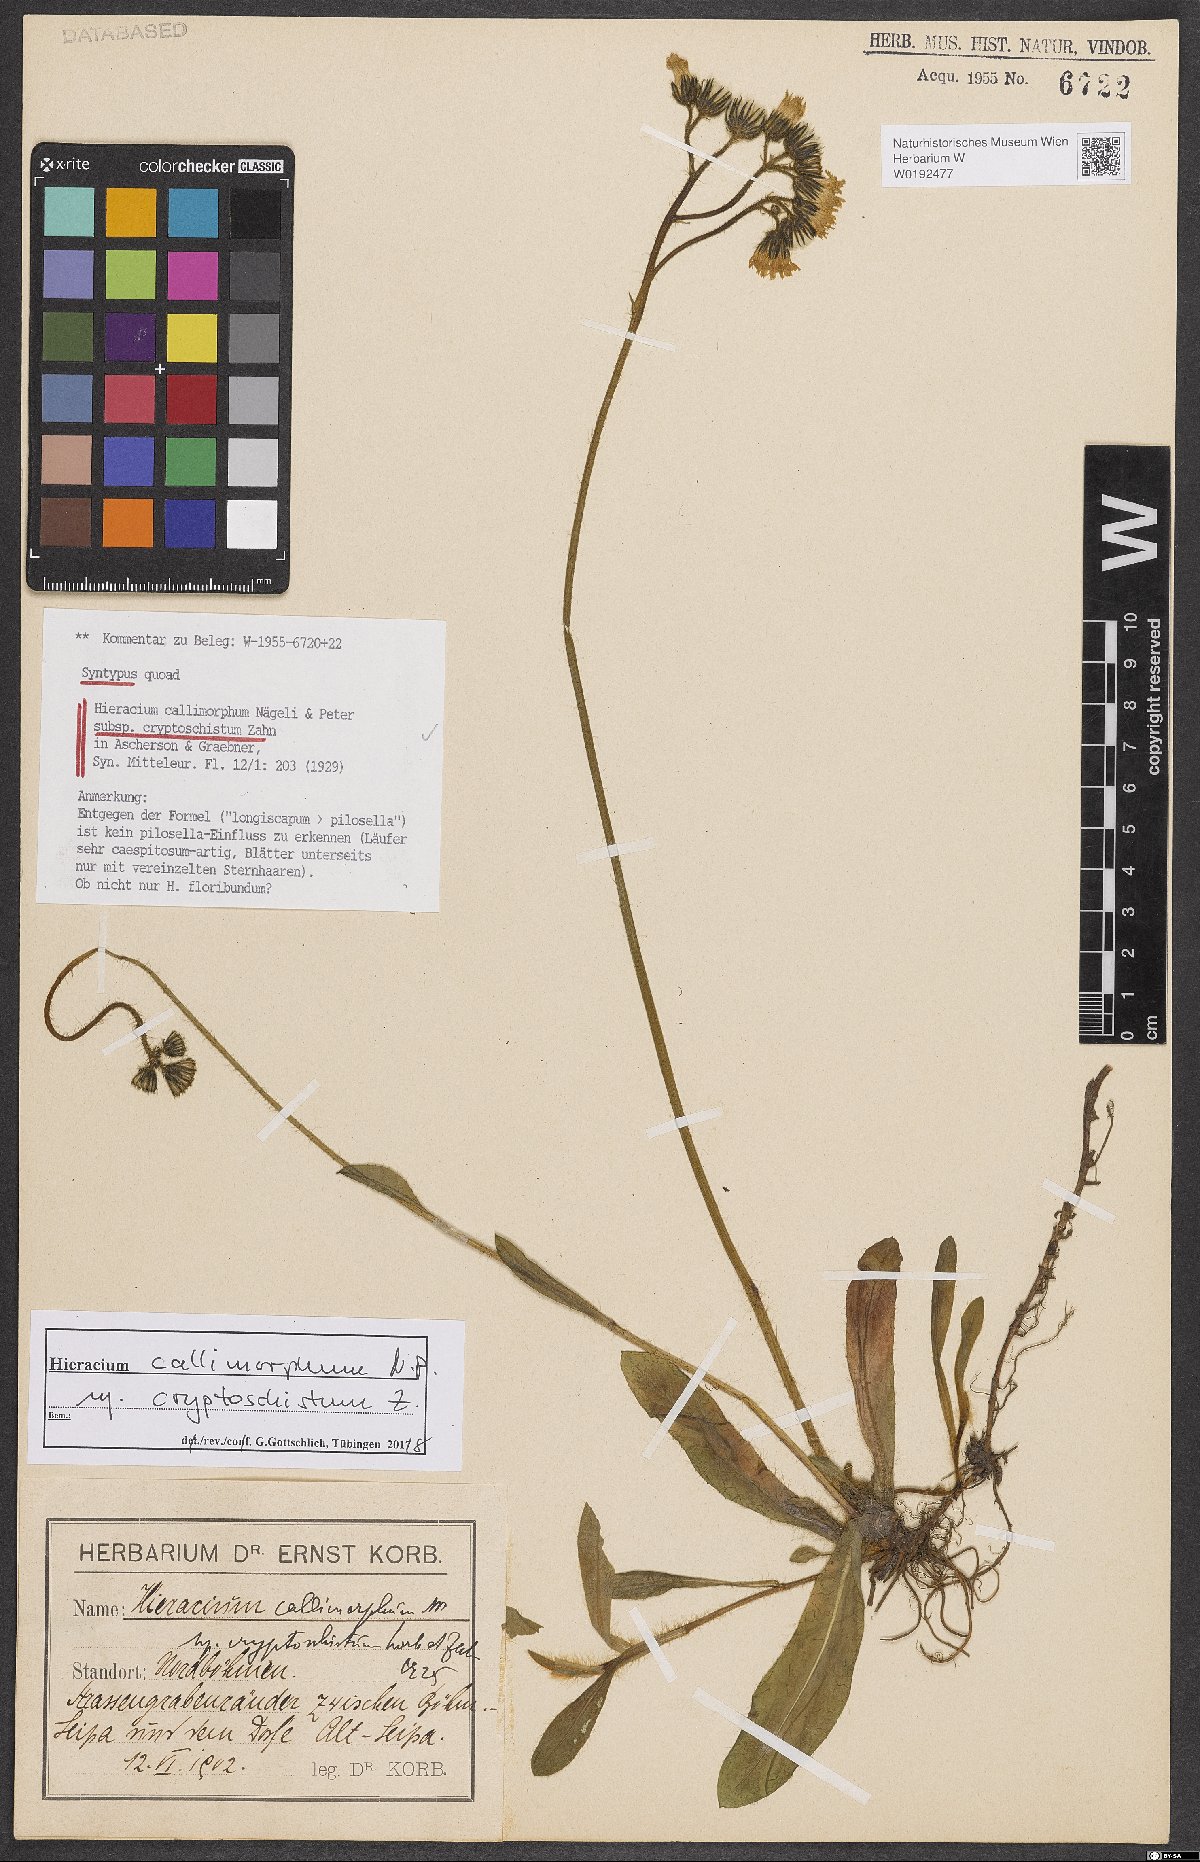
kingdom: Plantae
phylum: Tracheophyta
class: Magnoliopsida
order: Asterales
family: Asteraceae
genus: Pilosella
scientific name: Pilosella iserana
